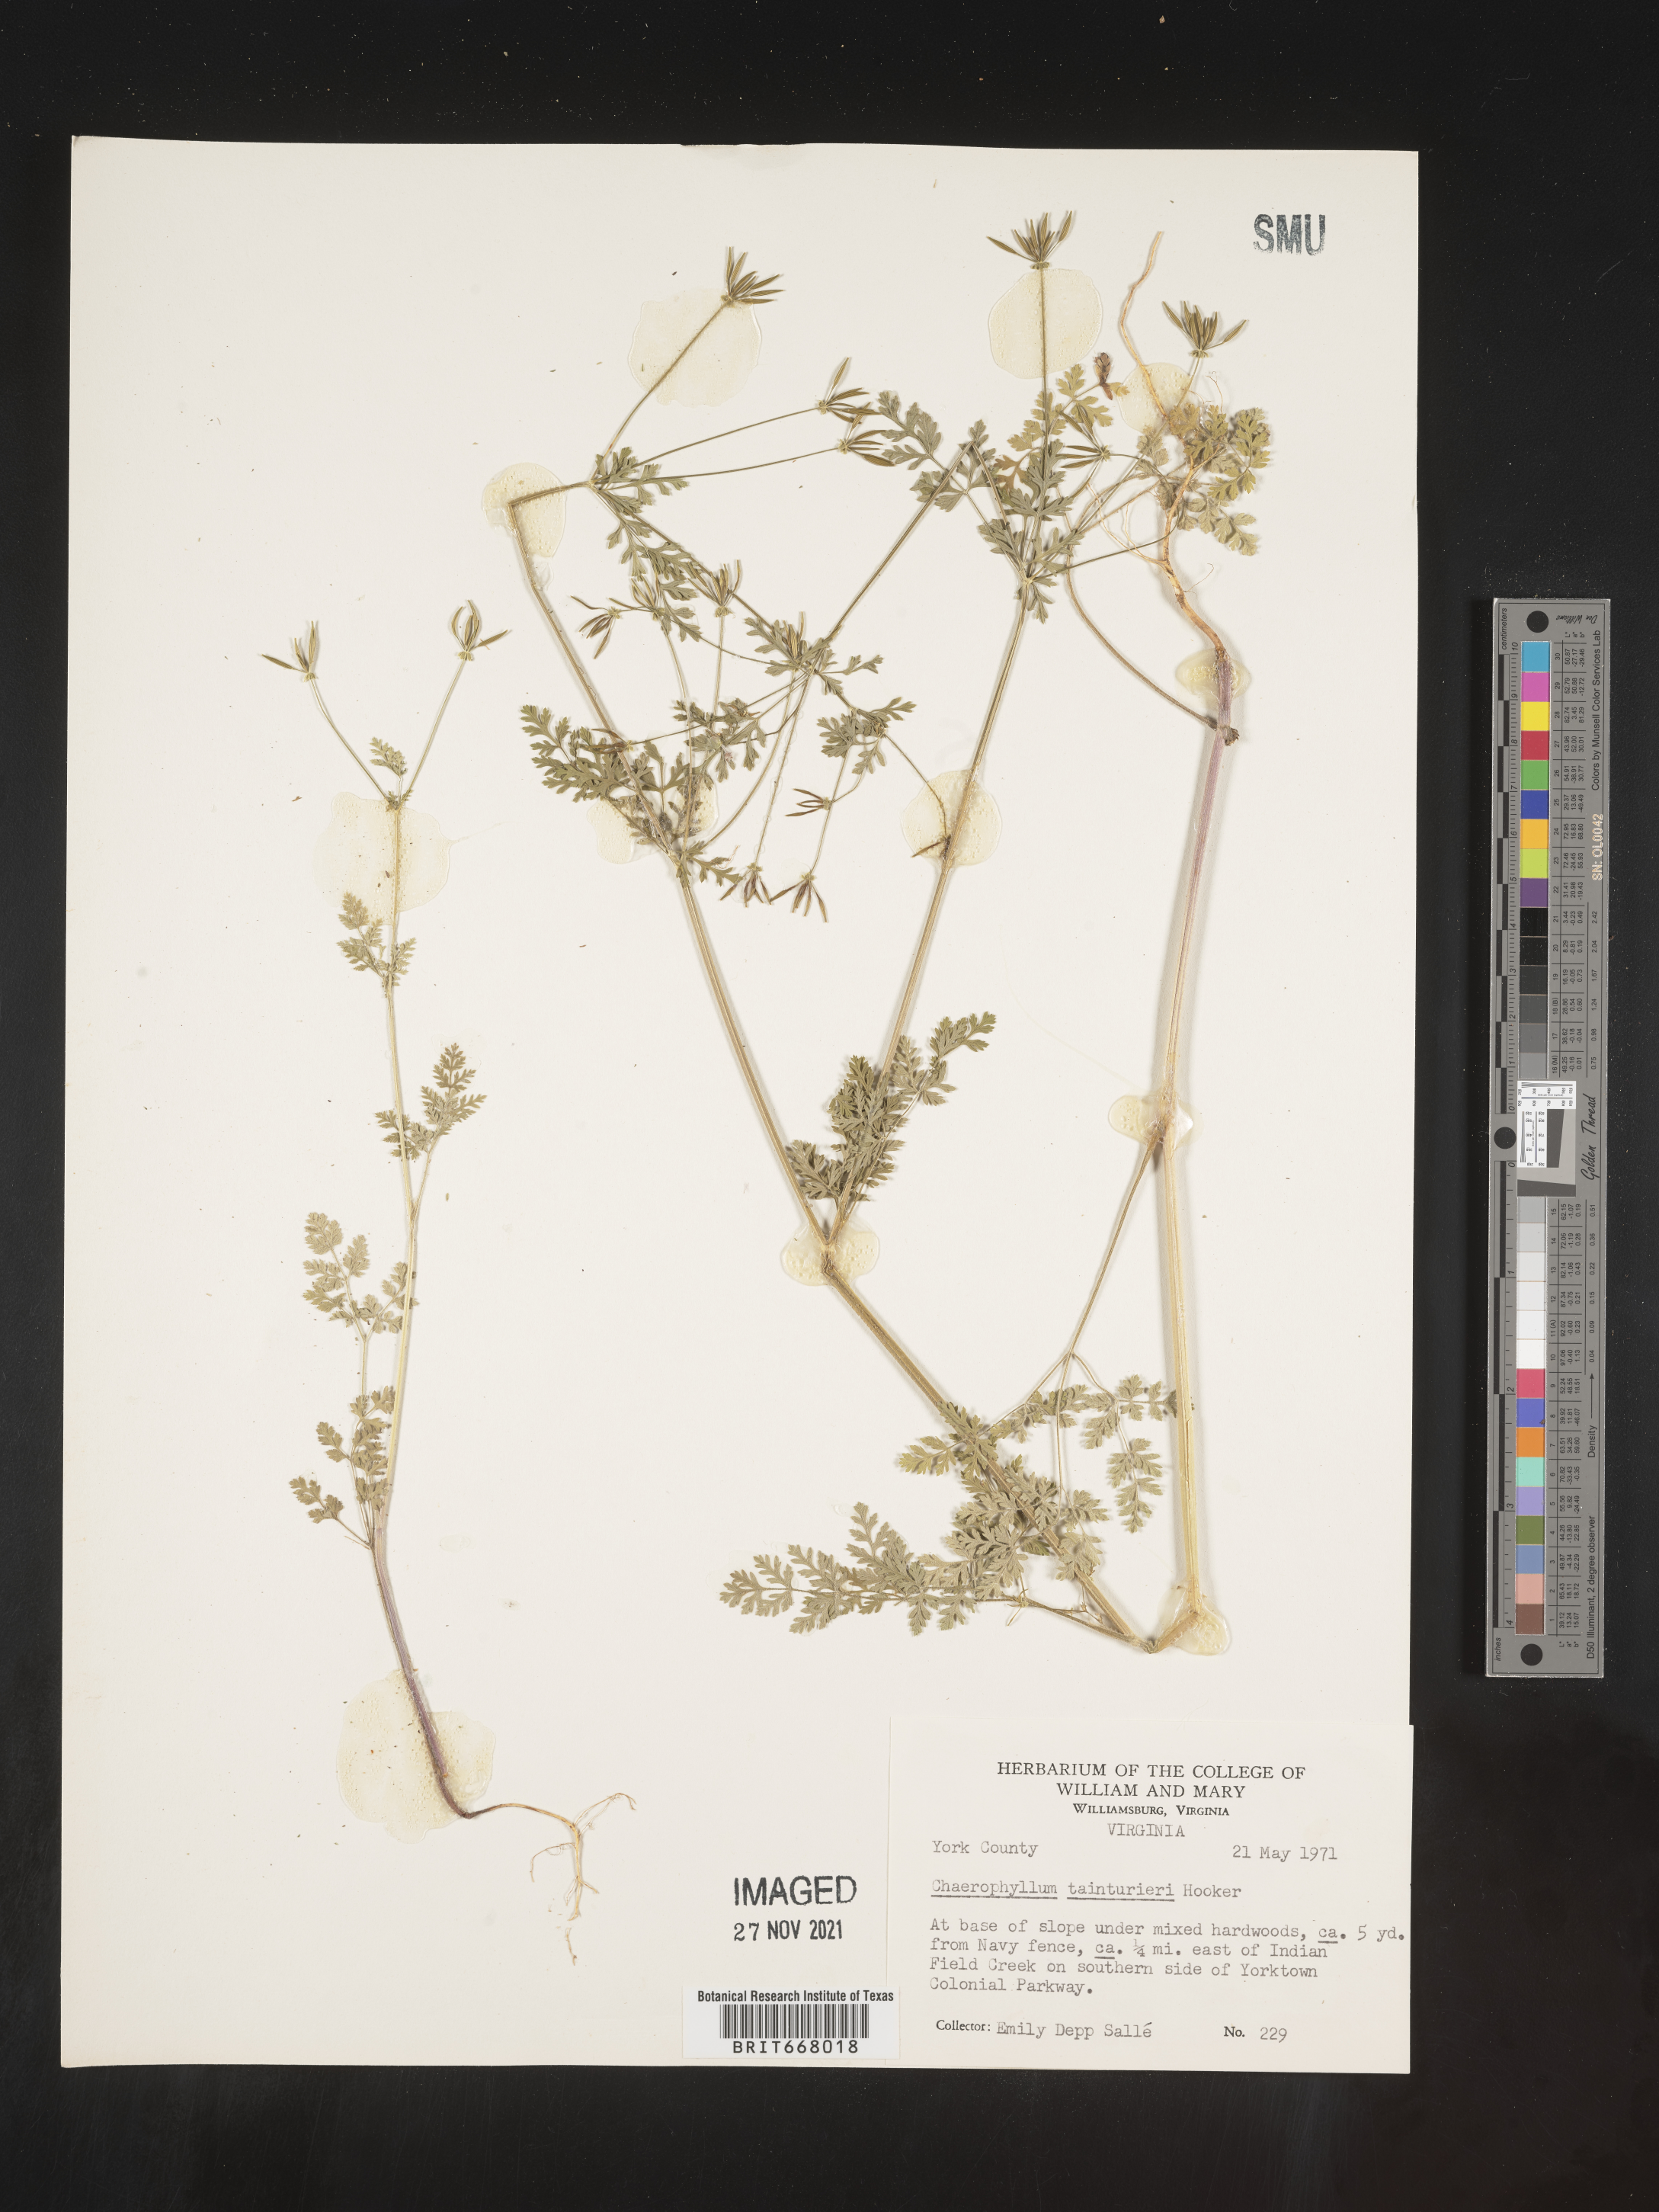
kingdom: Plantae
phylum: Tracheophyta
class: Magnoliopsida
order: Apiales
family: Apiaceae
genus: Chaerophyllum
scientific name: Chaerophyllum tainturieri
